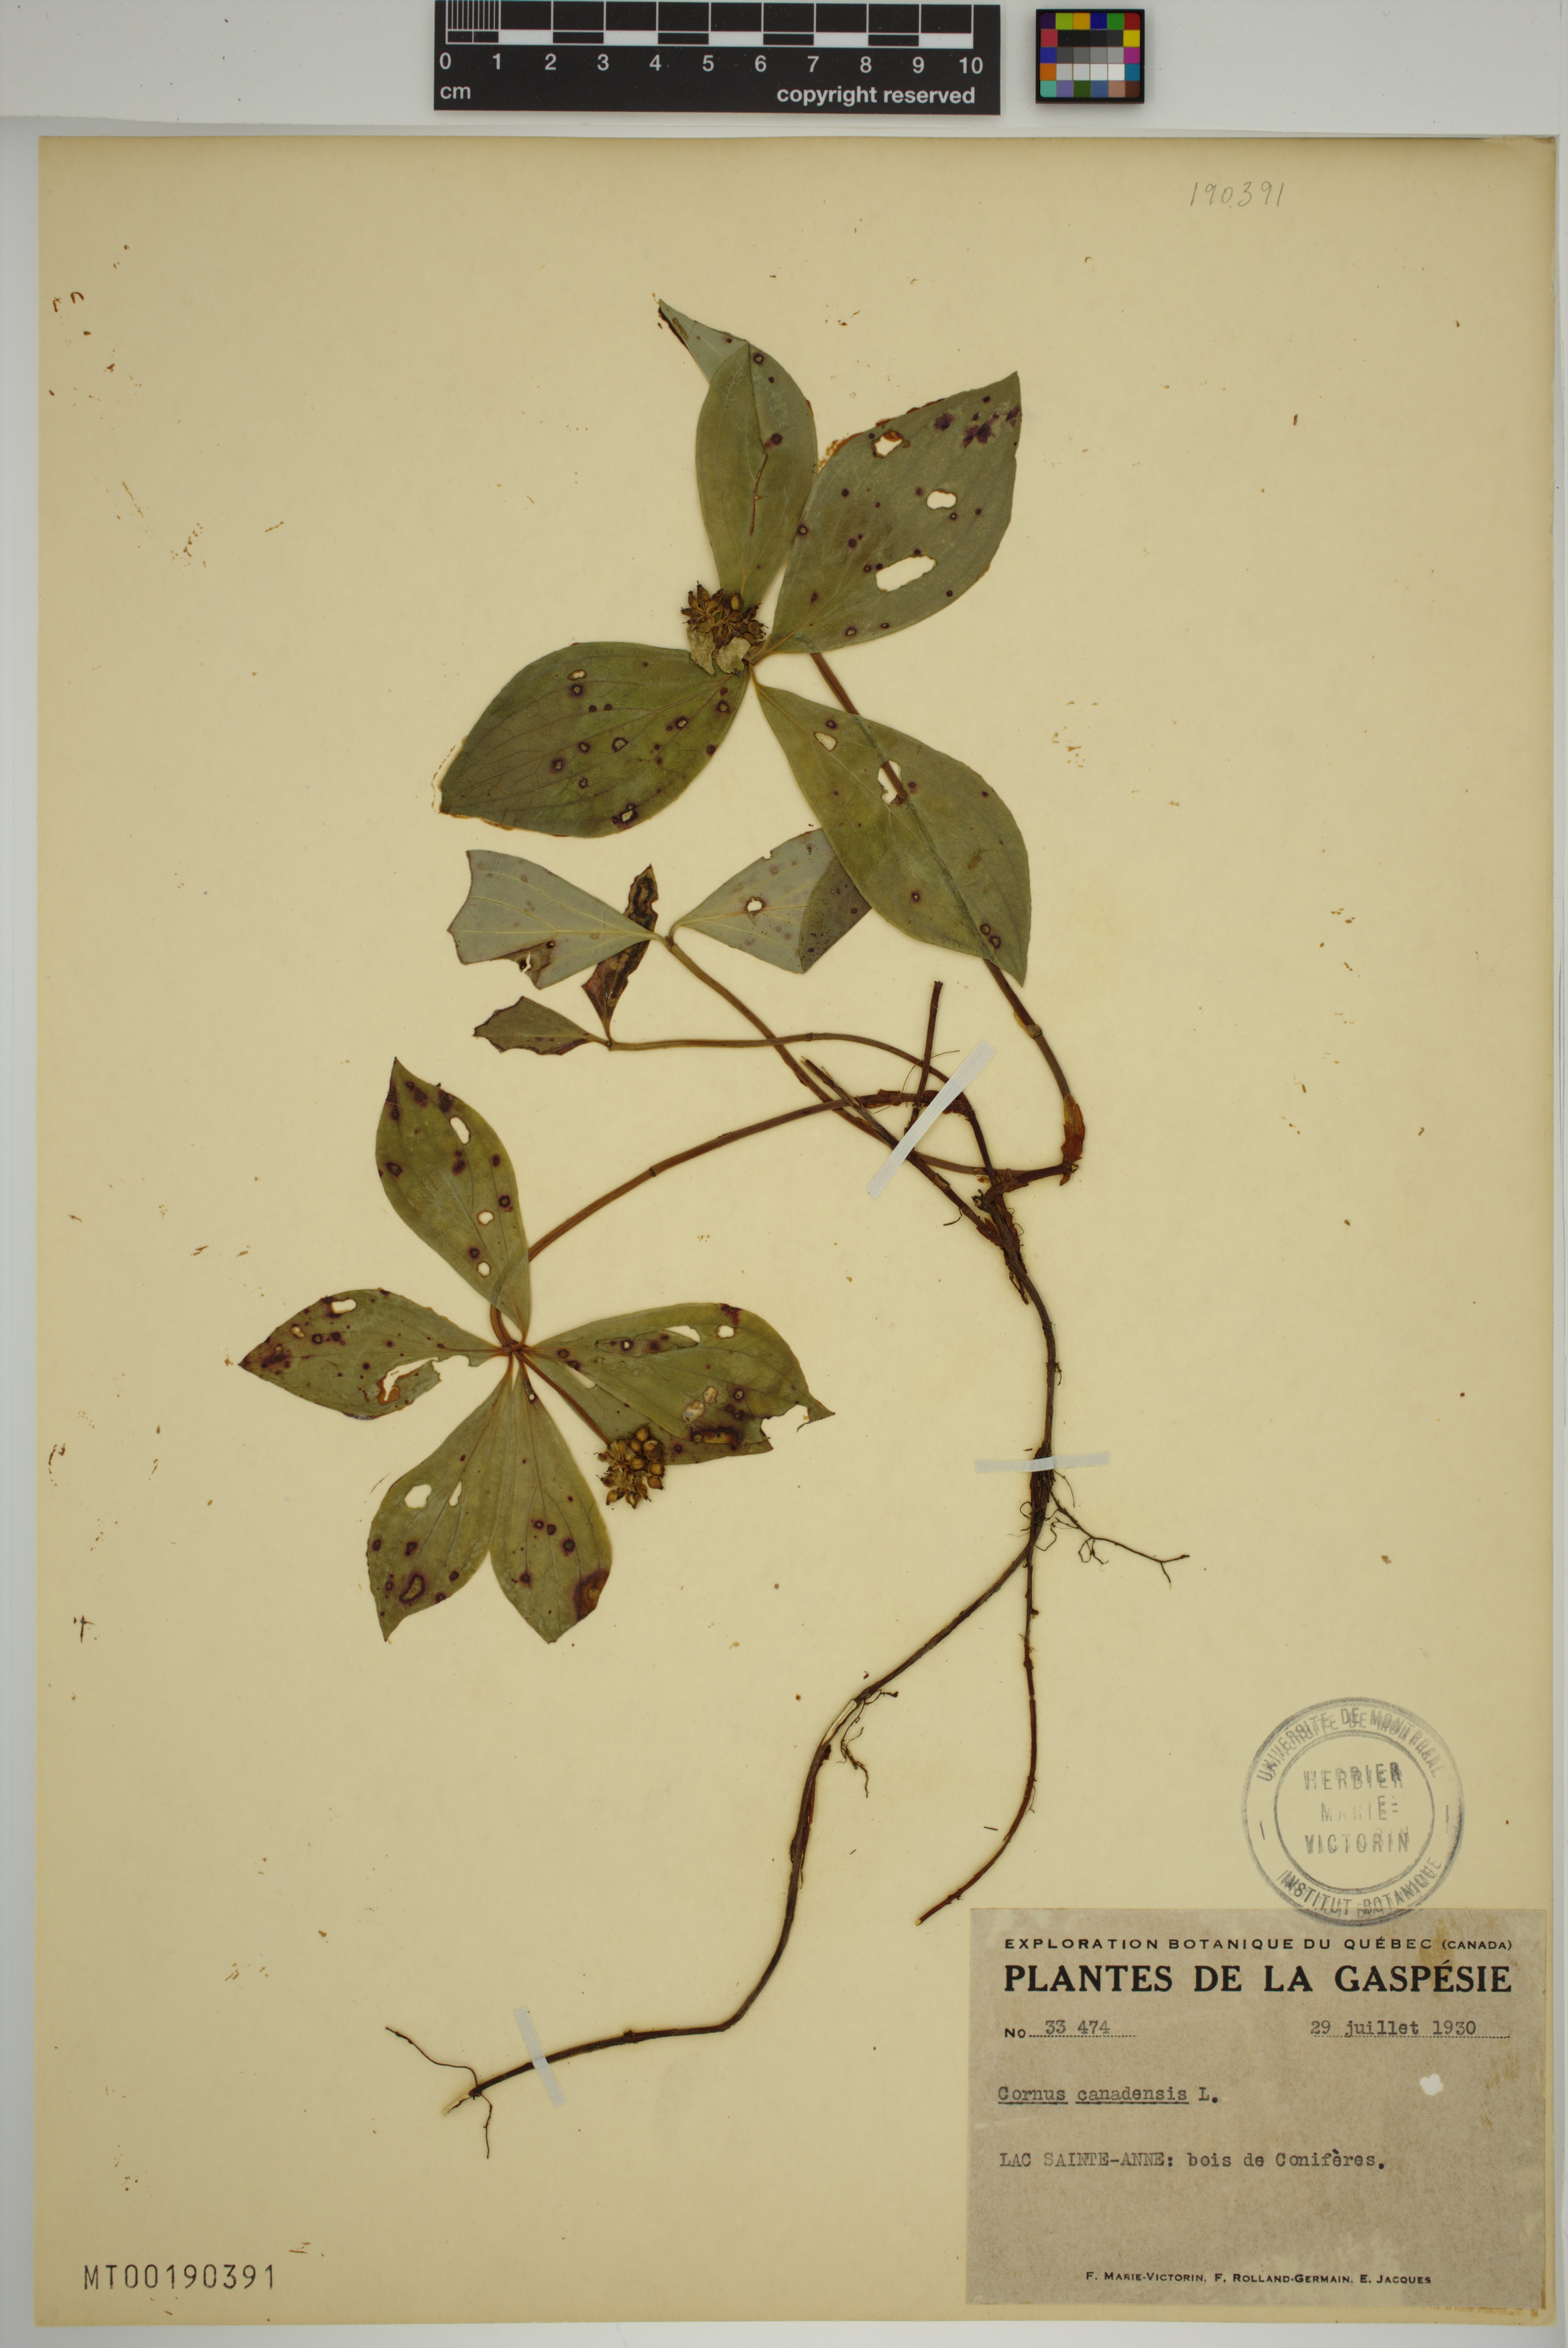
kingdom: Plantae
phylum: Tracheophyta
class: Magnoliopsida
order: Cornales
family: Cornaceae
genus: Cornus
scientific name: Cornus canadensis
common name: Creeping dogwood
